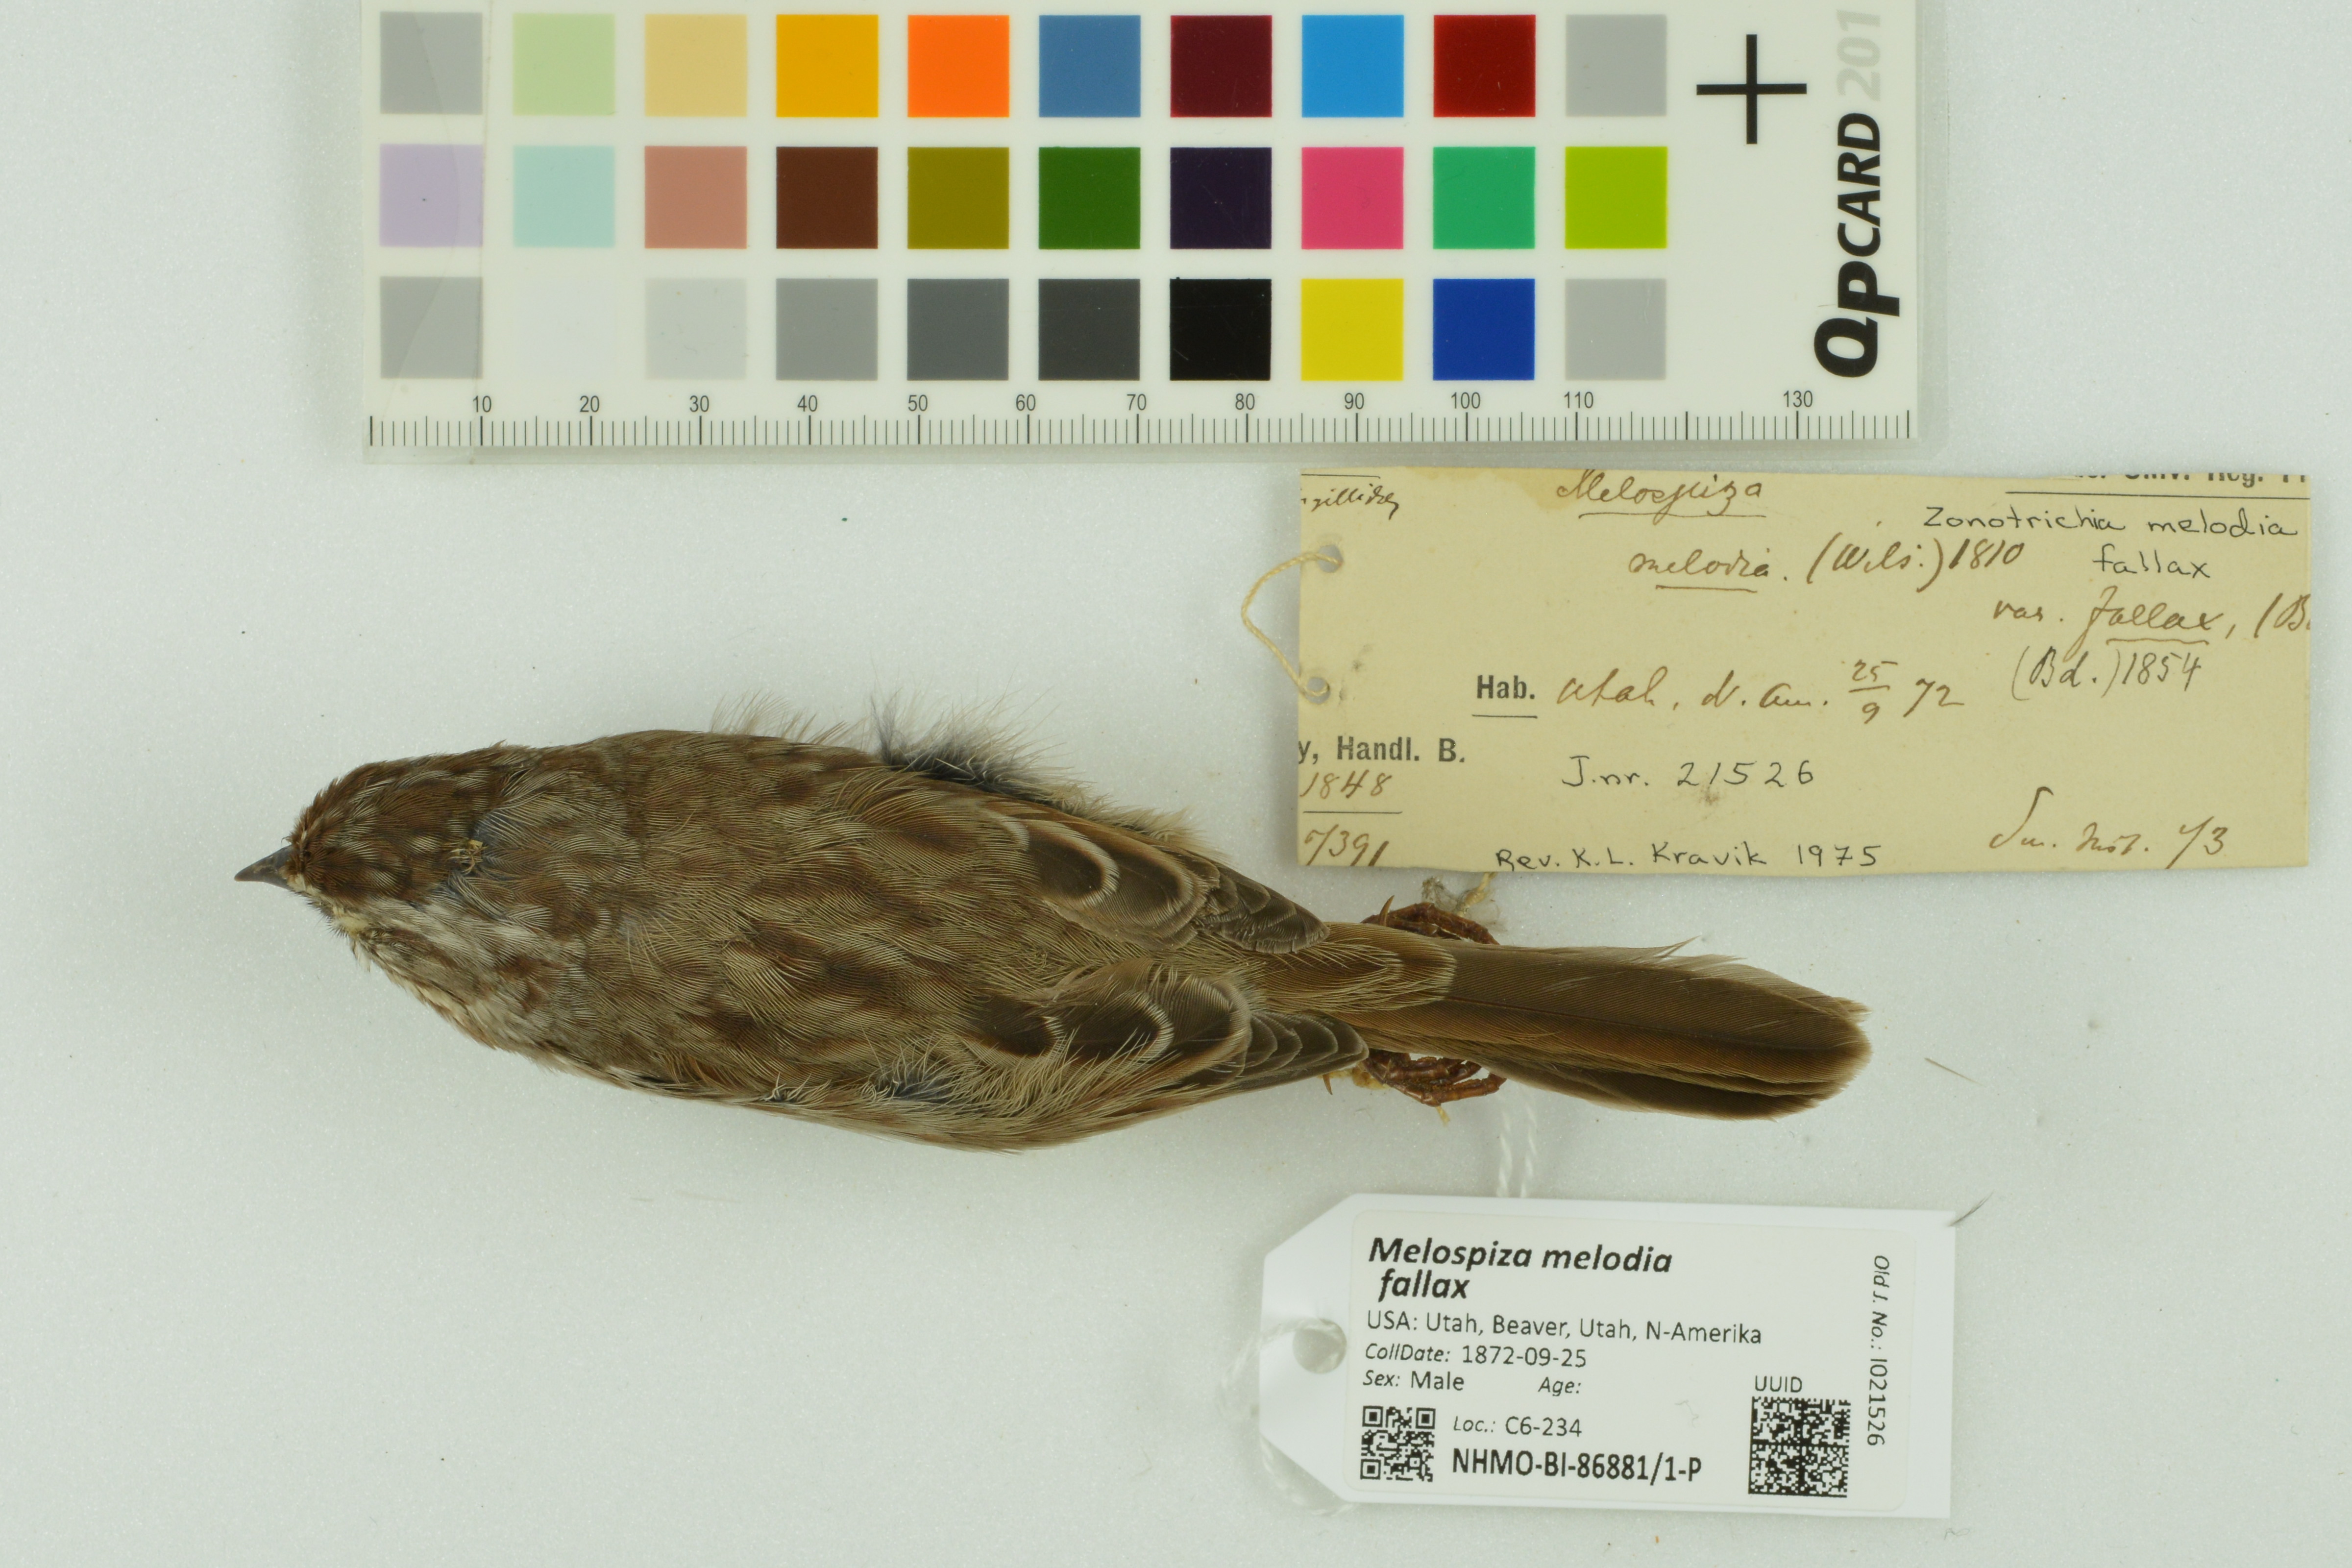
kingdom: Animalia
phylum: Chordata
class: Aves
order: Passeriformes
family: Passerellidae
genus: Melospiza
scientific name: Melospiza melodia
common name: Song sparrow
